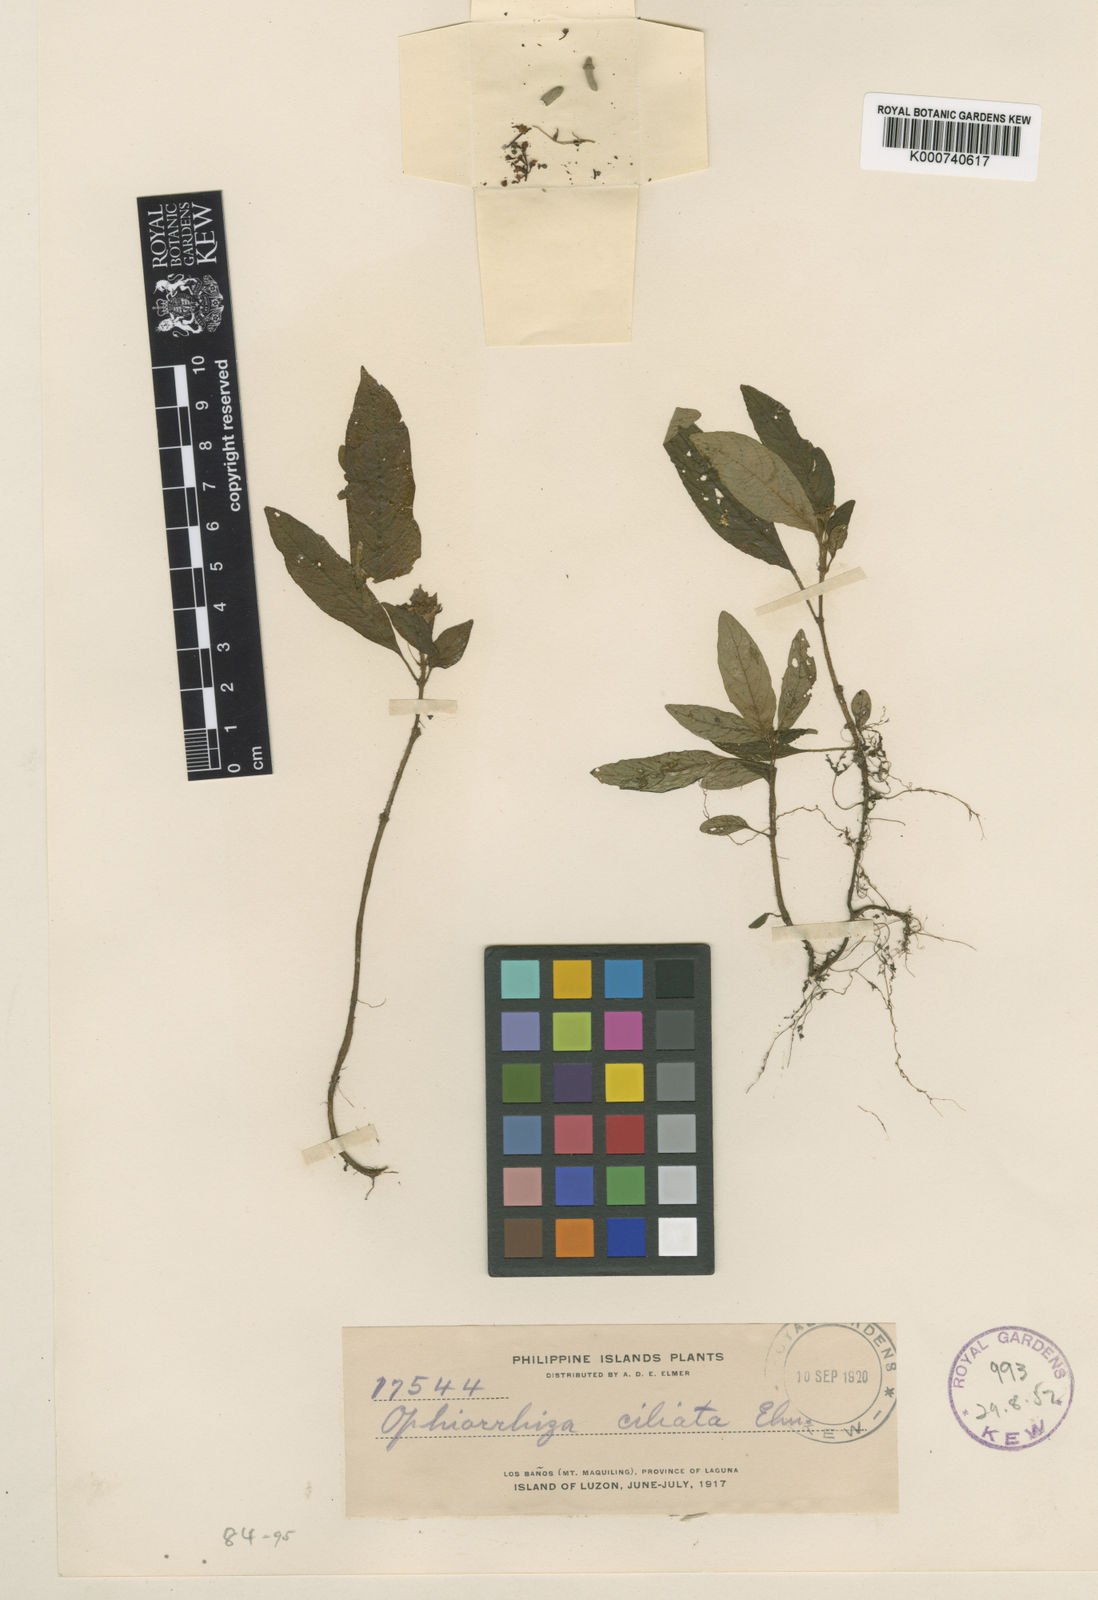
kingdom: Plantae
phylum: Tracheophyta
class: Magnoliopsida
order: Gentianales
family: Rubiaceae
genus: Ophiorrhiza
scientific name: Ophiorrhiza ciliata
